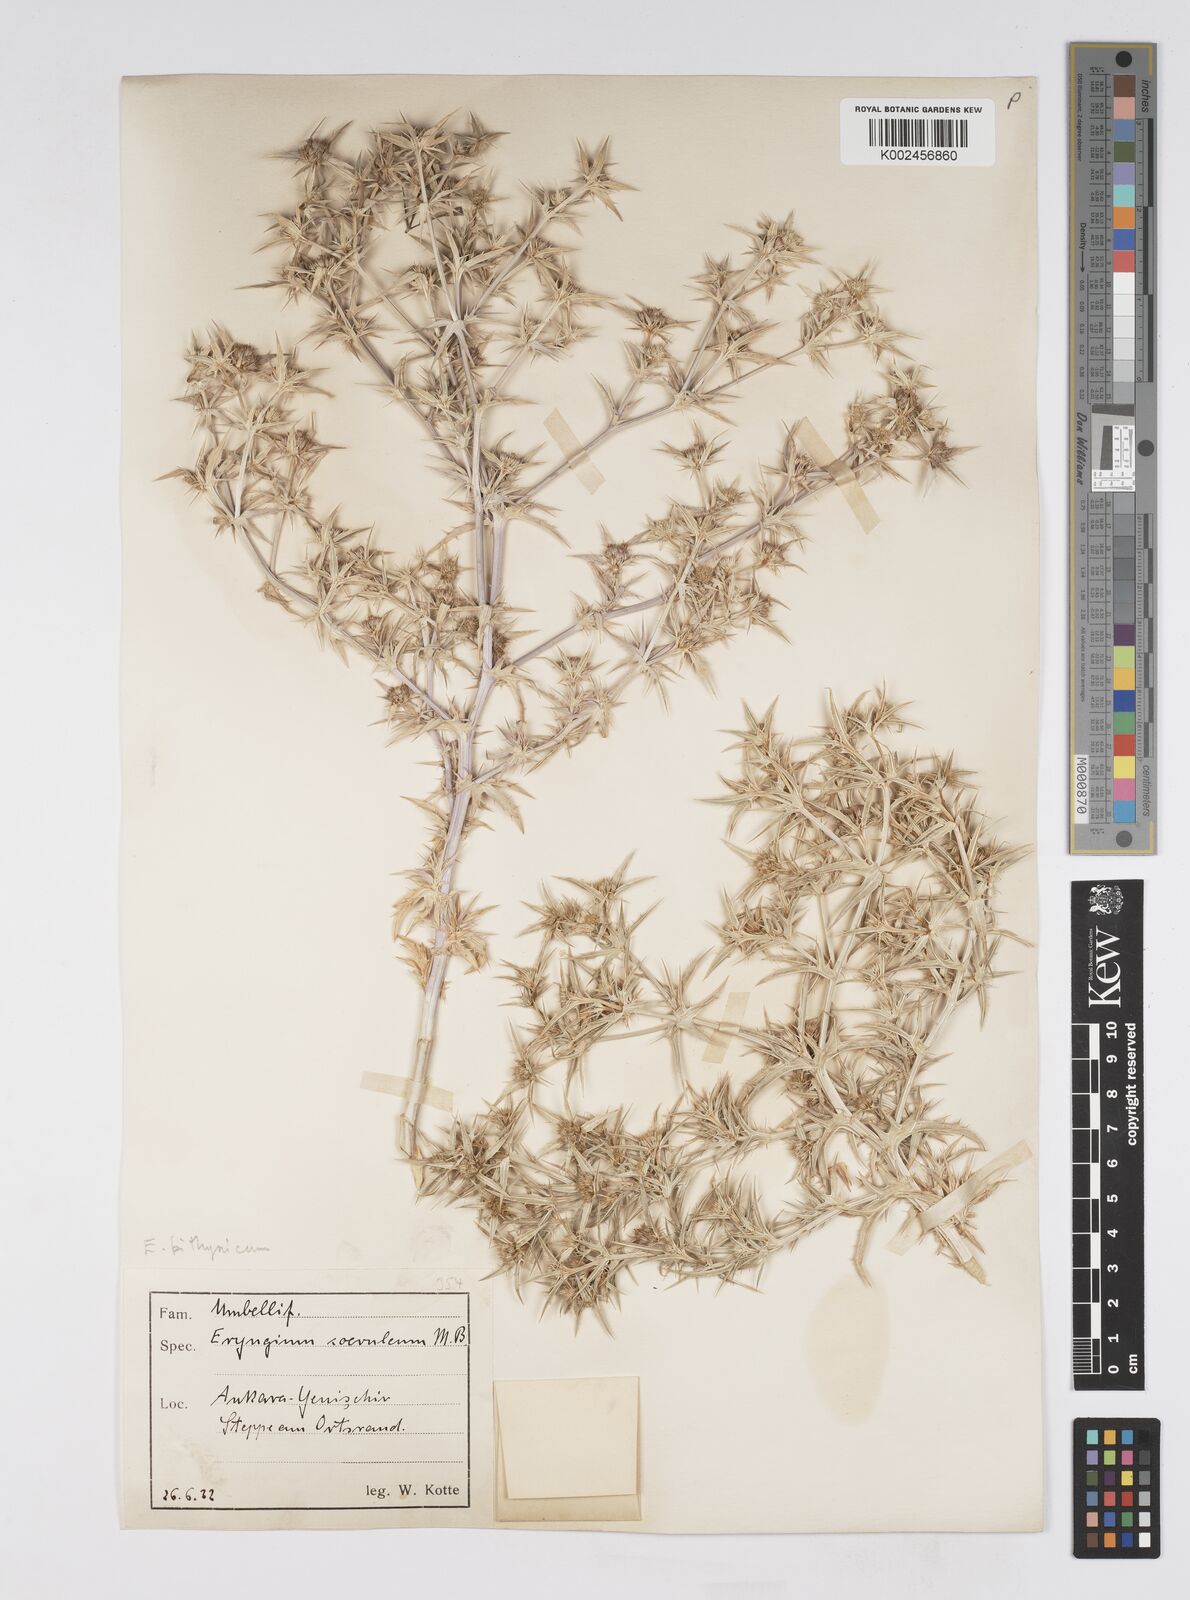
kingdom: Plantae
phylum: Tracheophyta
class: Magnoliopsida
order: Apiales
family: Apiaceae
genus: Eryngium
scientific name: Eryngium bithynicum
